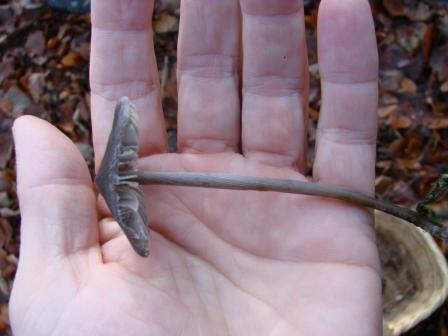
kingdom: Fungi
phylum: Basidiomycota
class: Agaricomycetes
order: Agaricales
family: Mycenaceae
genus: Mycena
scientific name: Mycena polygramma
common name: mangestribet huesvamp
